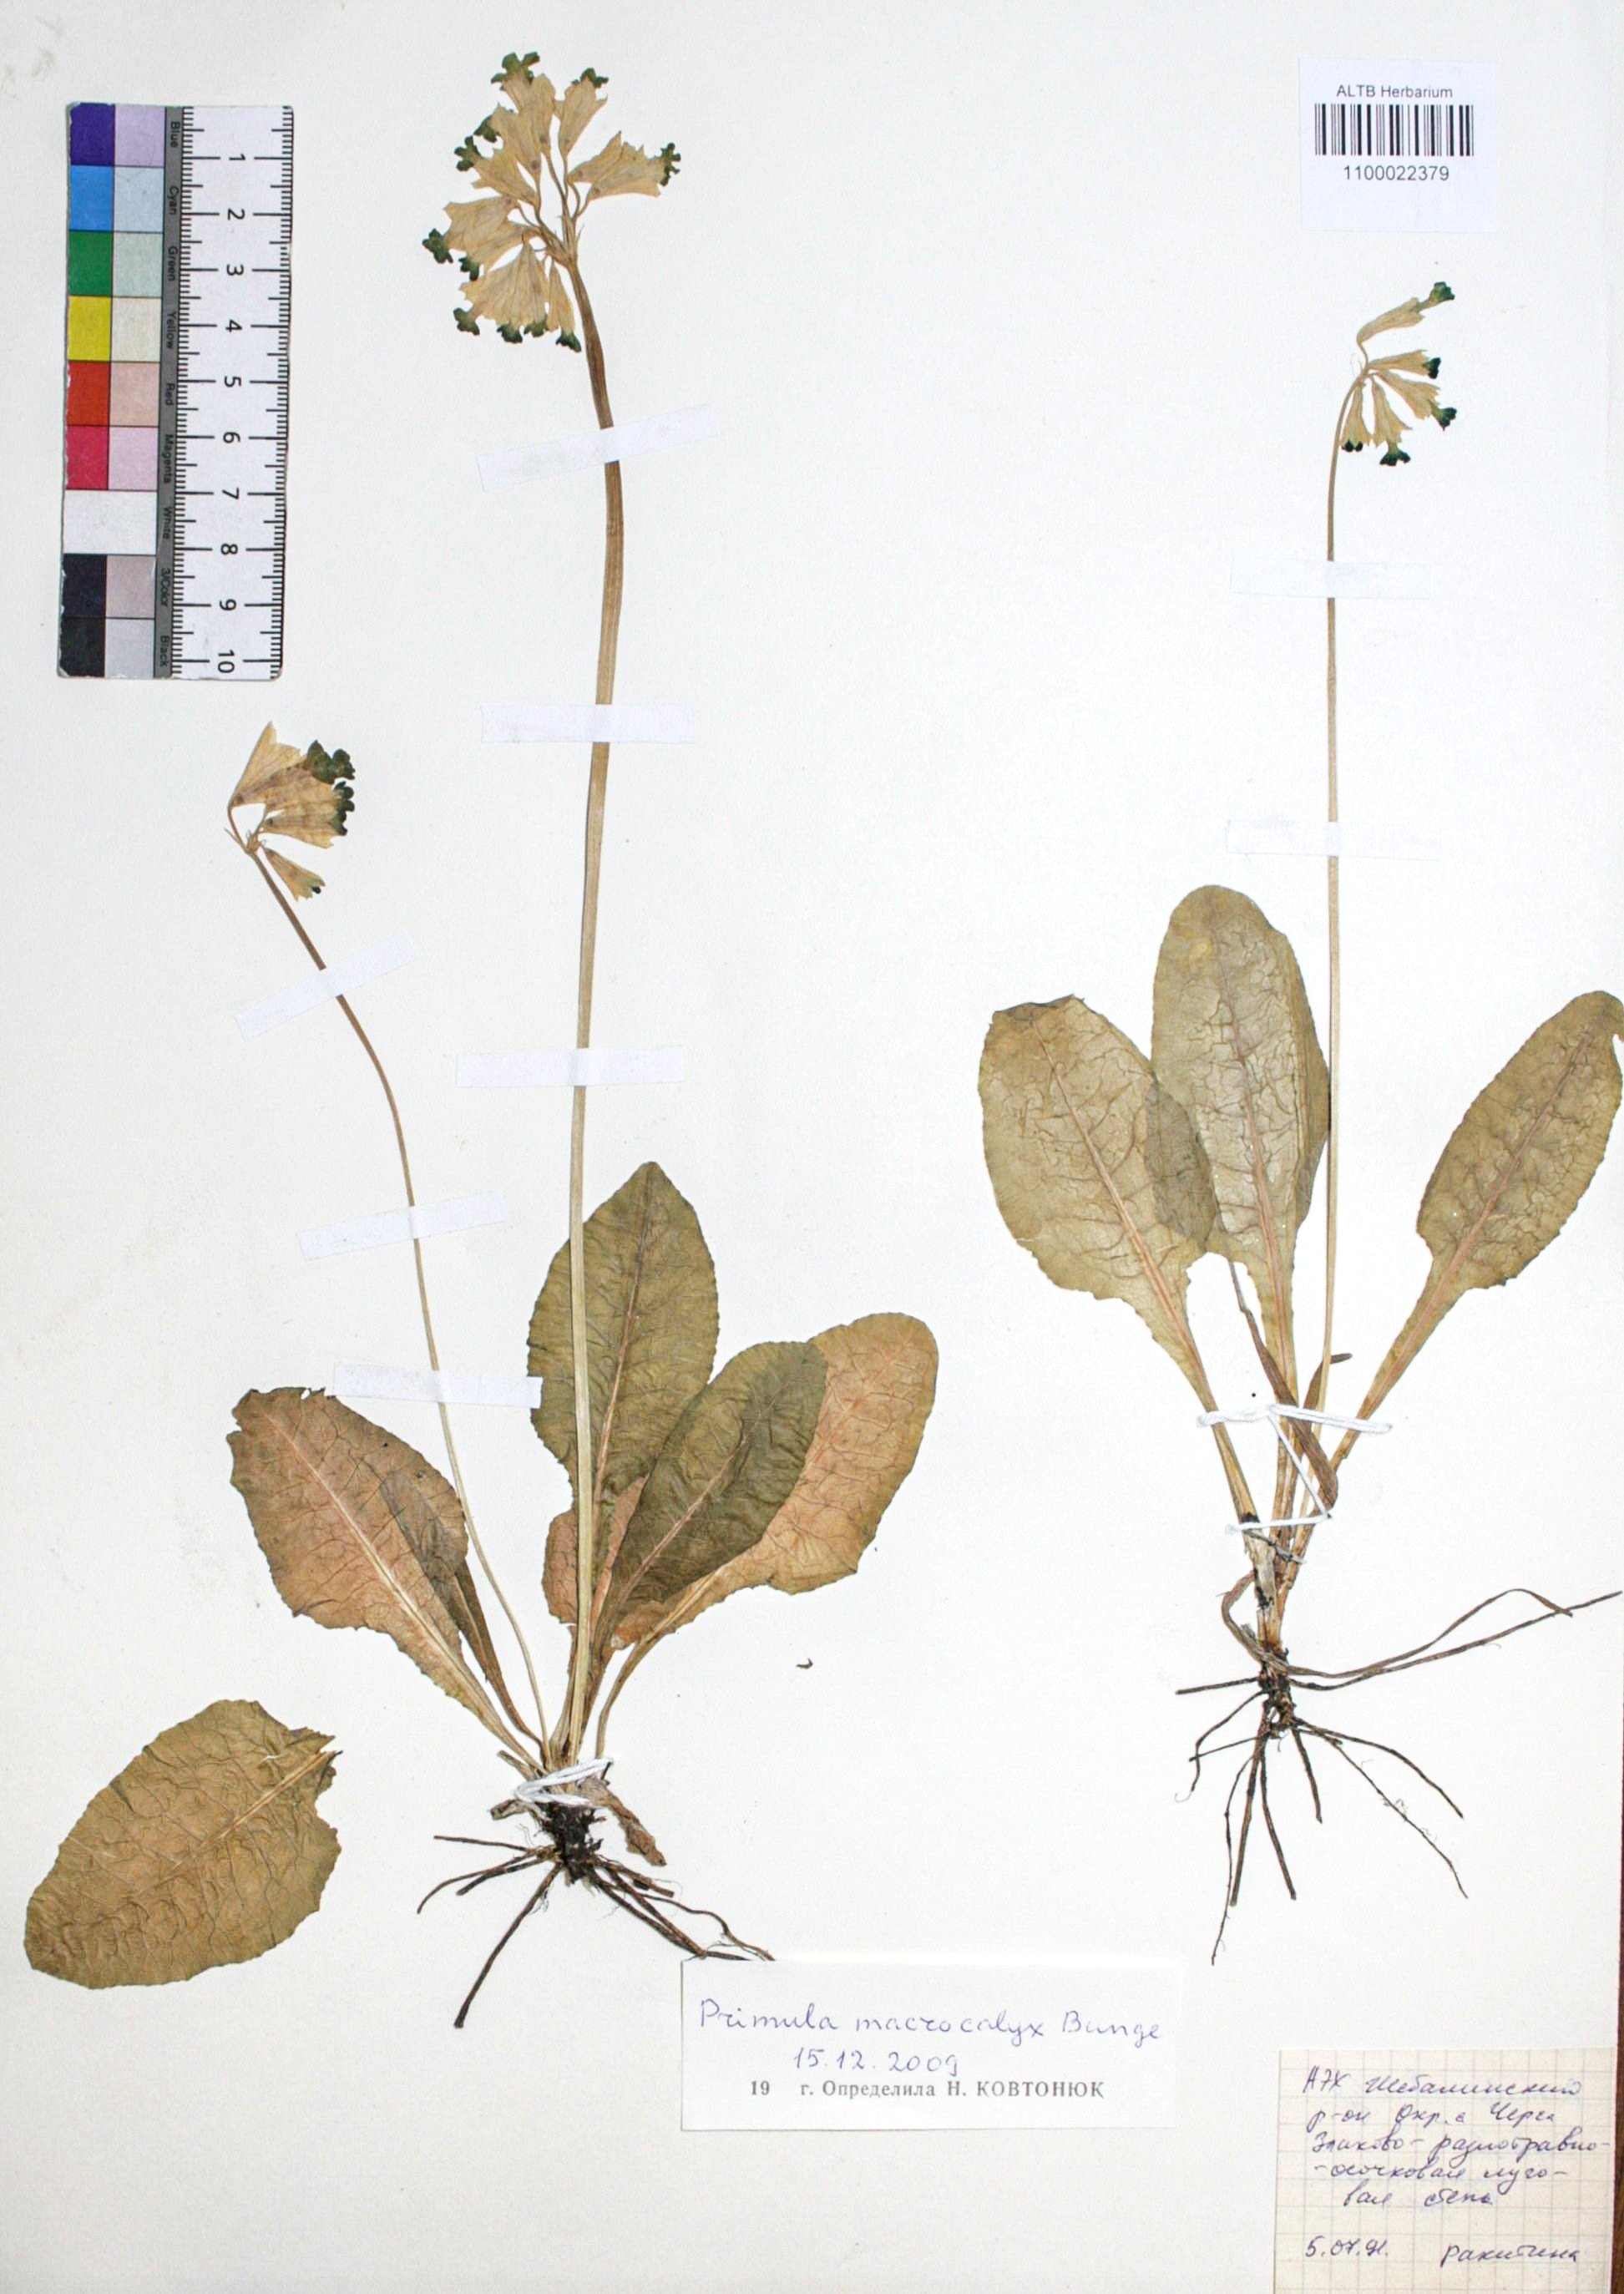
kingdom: Plantae
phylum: Tracheophyta
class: Magnoliopsida
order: Ericales
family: Primulaceae
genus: Primula
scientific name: Primula veris
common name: Cowslip
